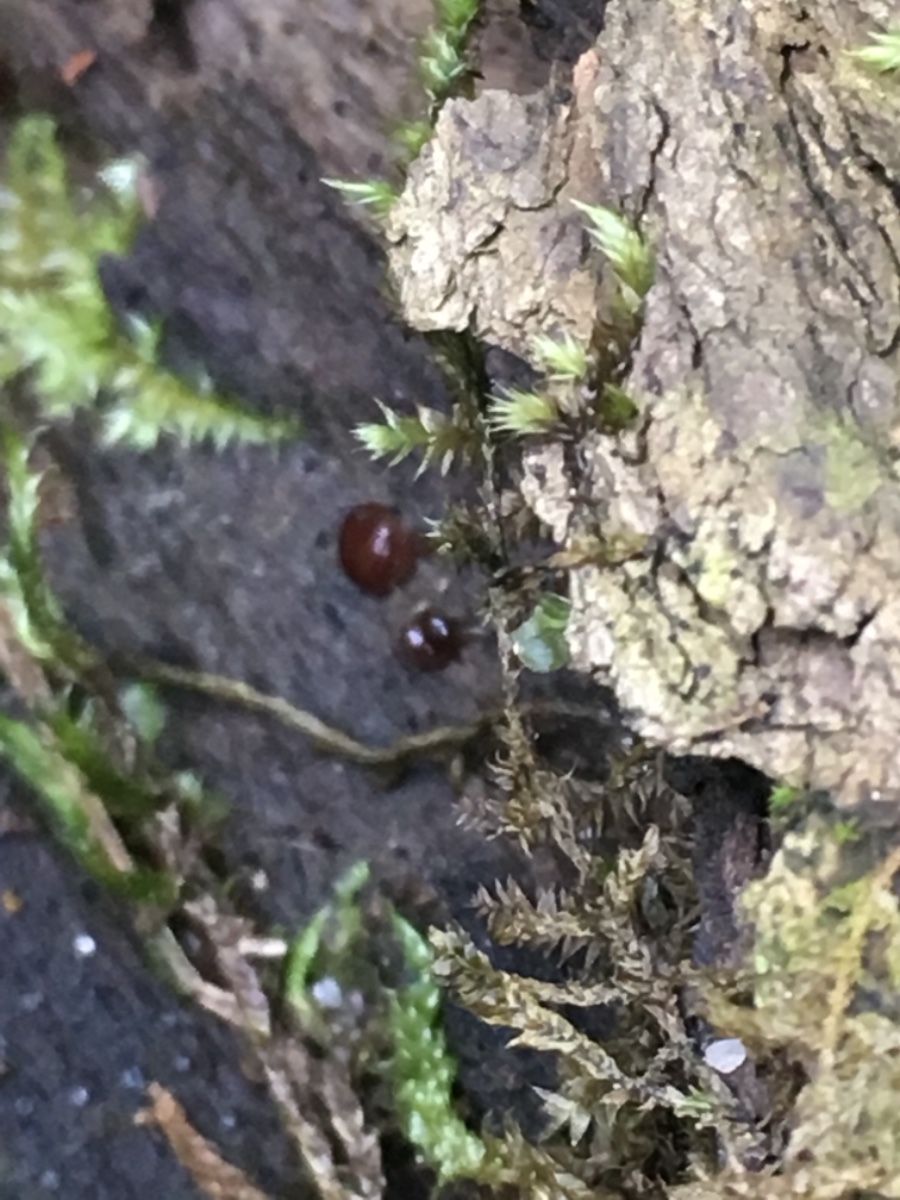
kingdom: Fungi
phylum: Ascomycota
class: Pezizomycetes
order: Pezizales
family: Pezizaceae
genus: Adelphella
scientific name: Adelphella
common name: bækbæger
